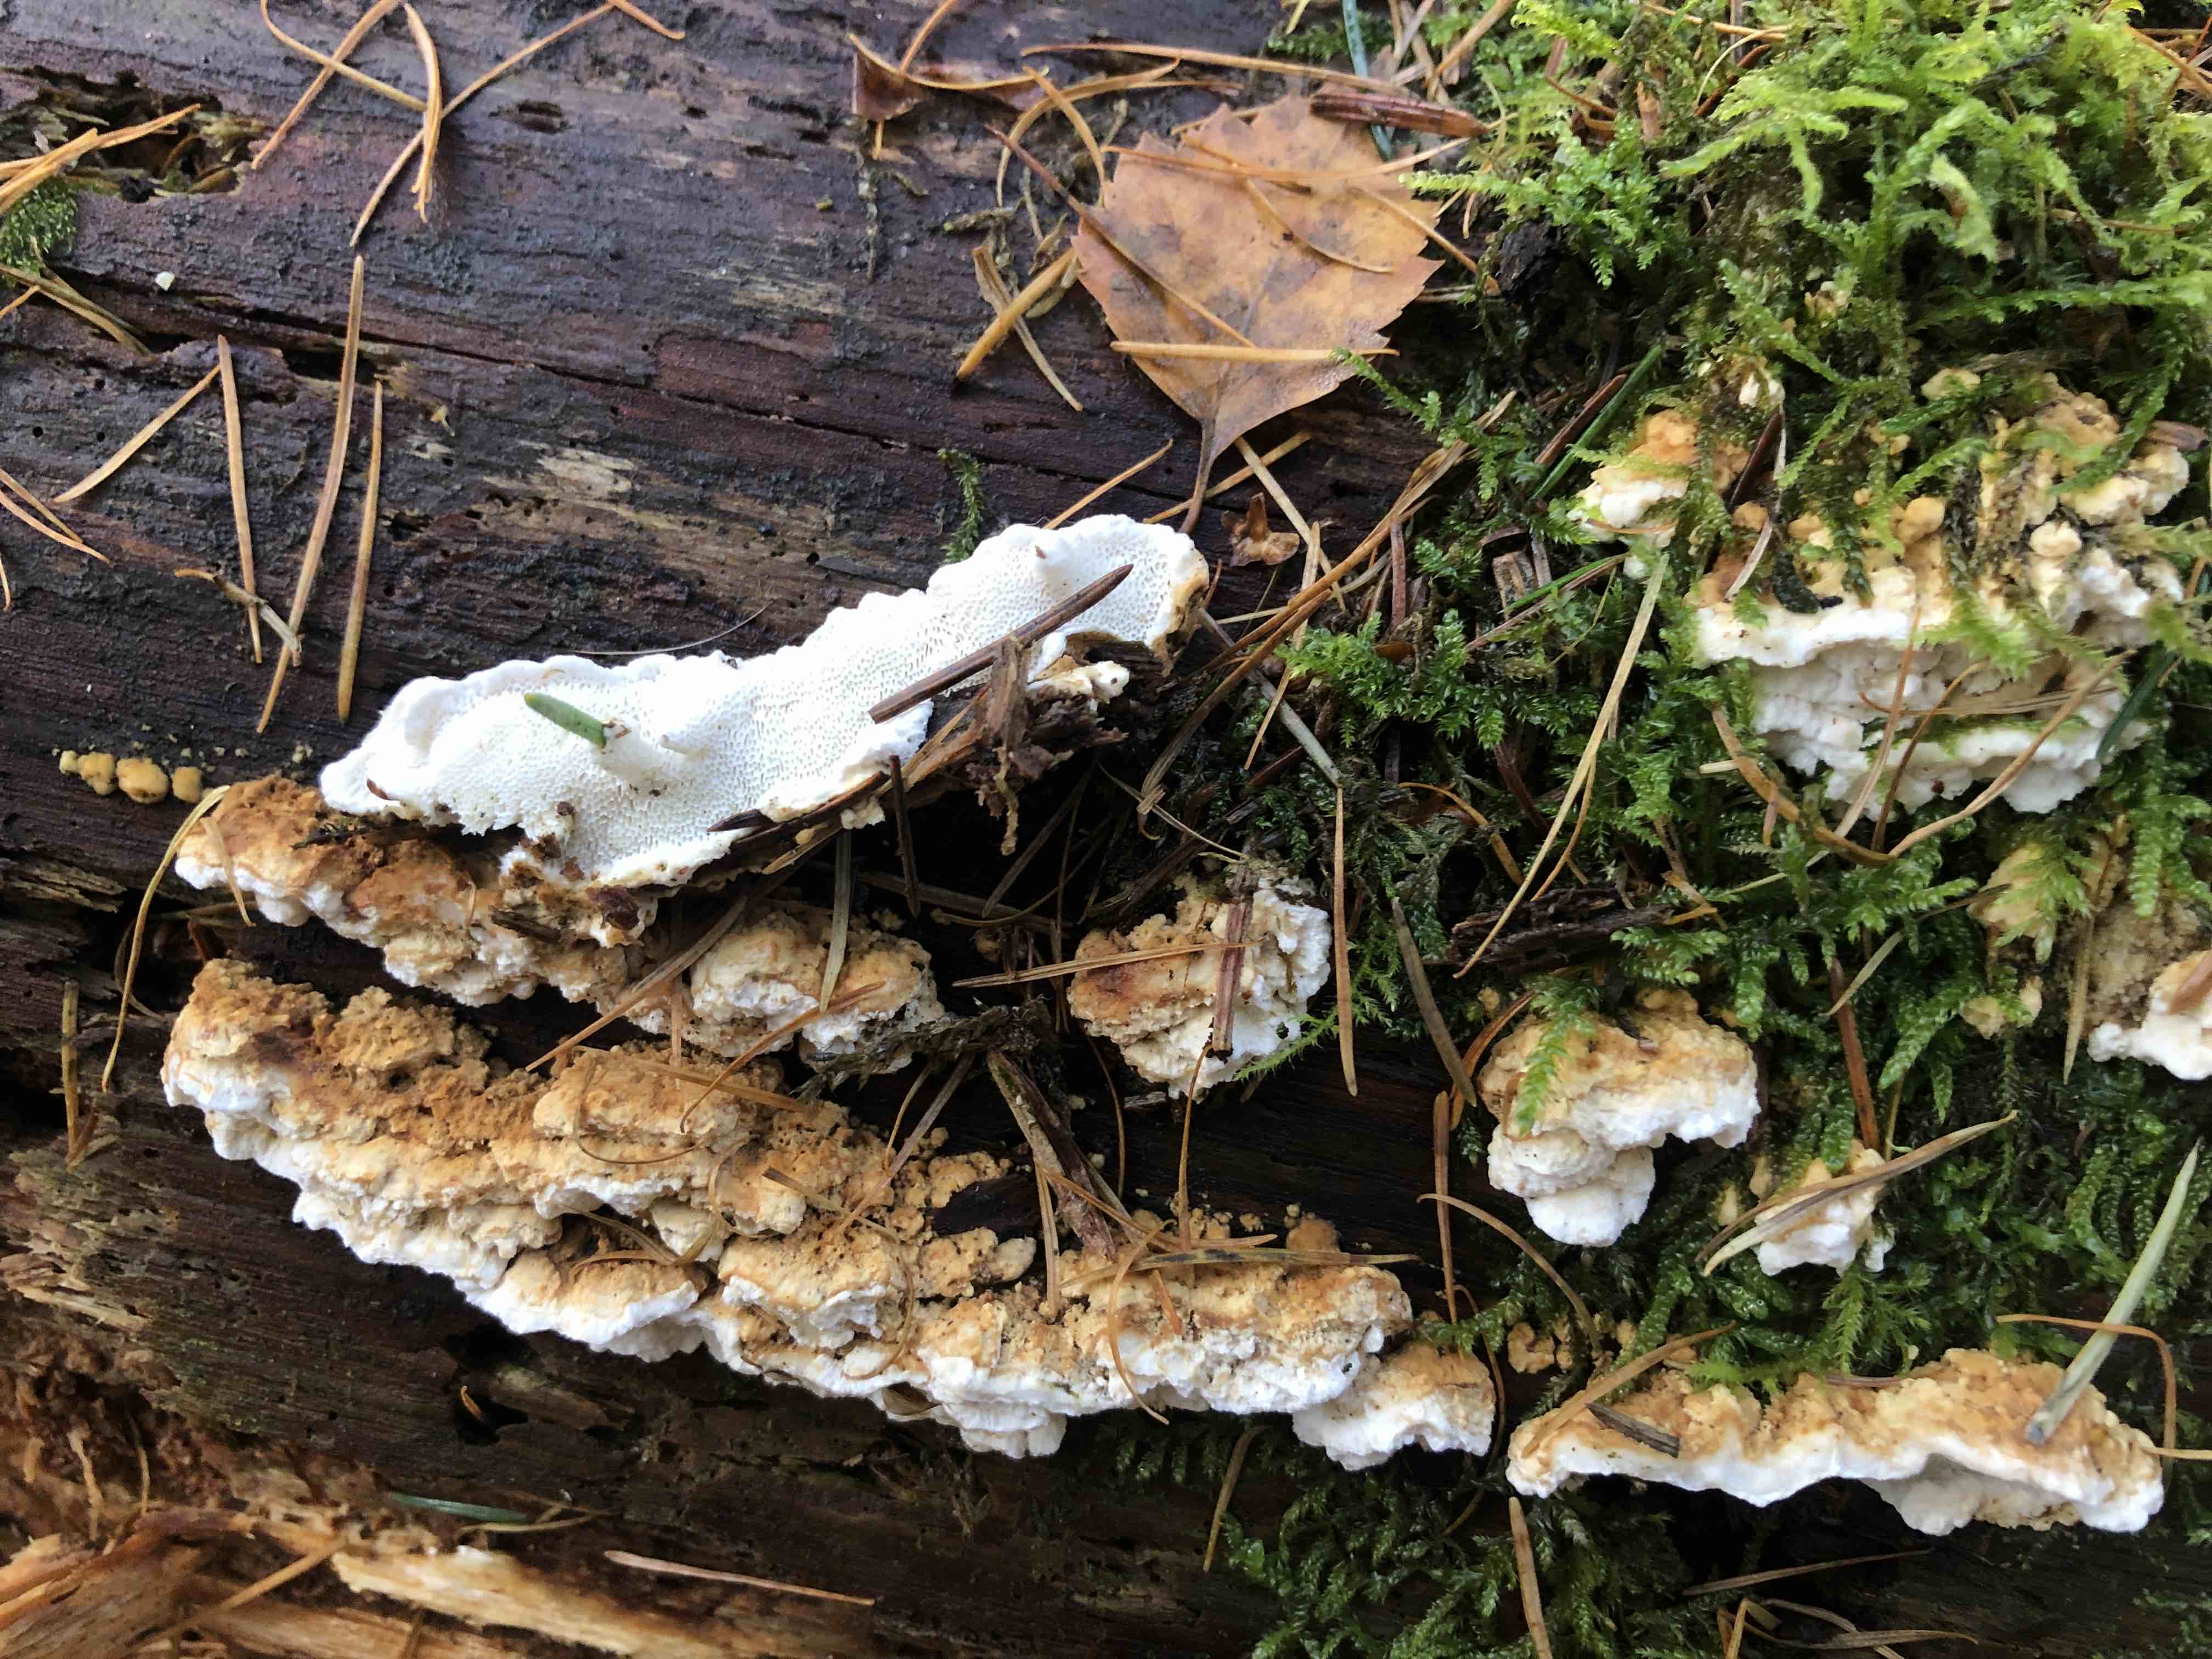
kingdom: Fungi
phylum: Basidiomycota
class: Agaricomycetes
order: Polyporales
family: Fomitopsidaceae
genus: Neoantrodia
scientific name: Neoantrodia serialis
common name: række-sejporesvamp
